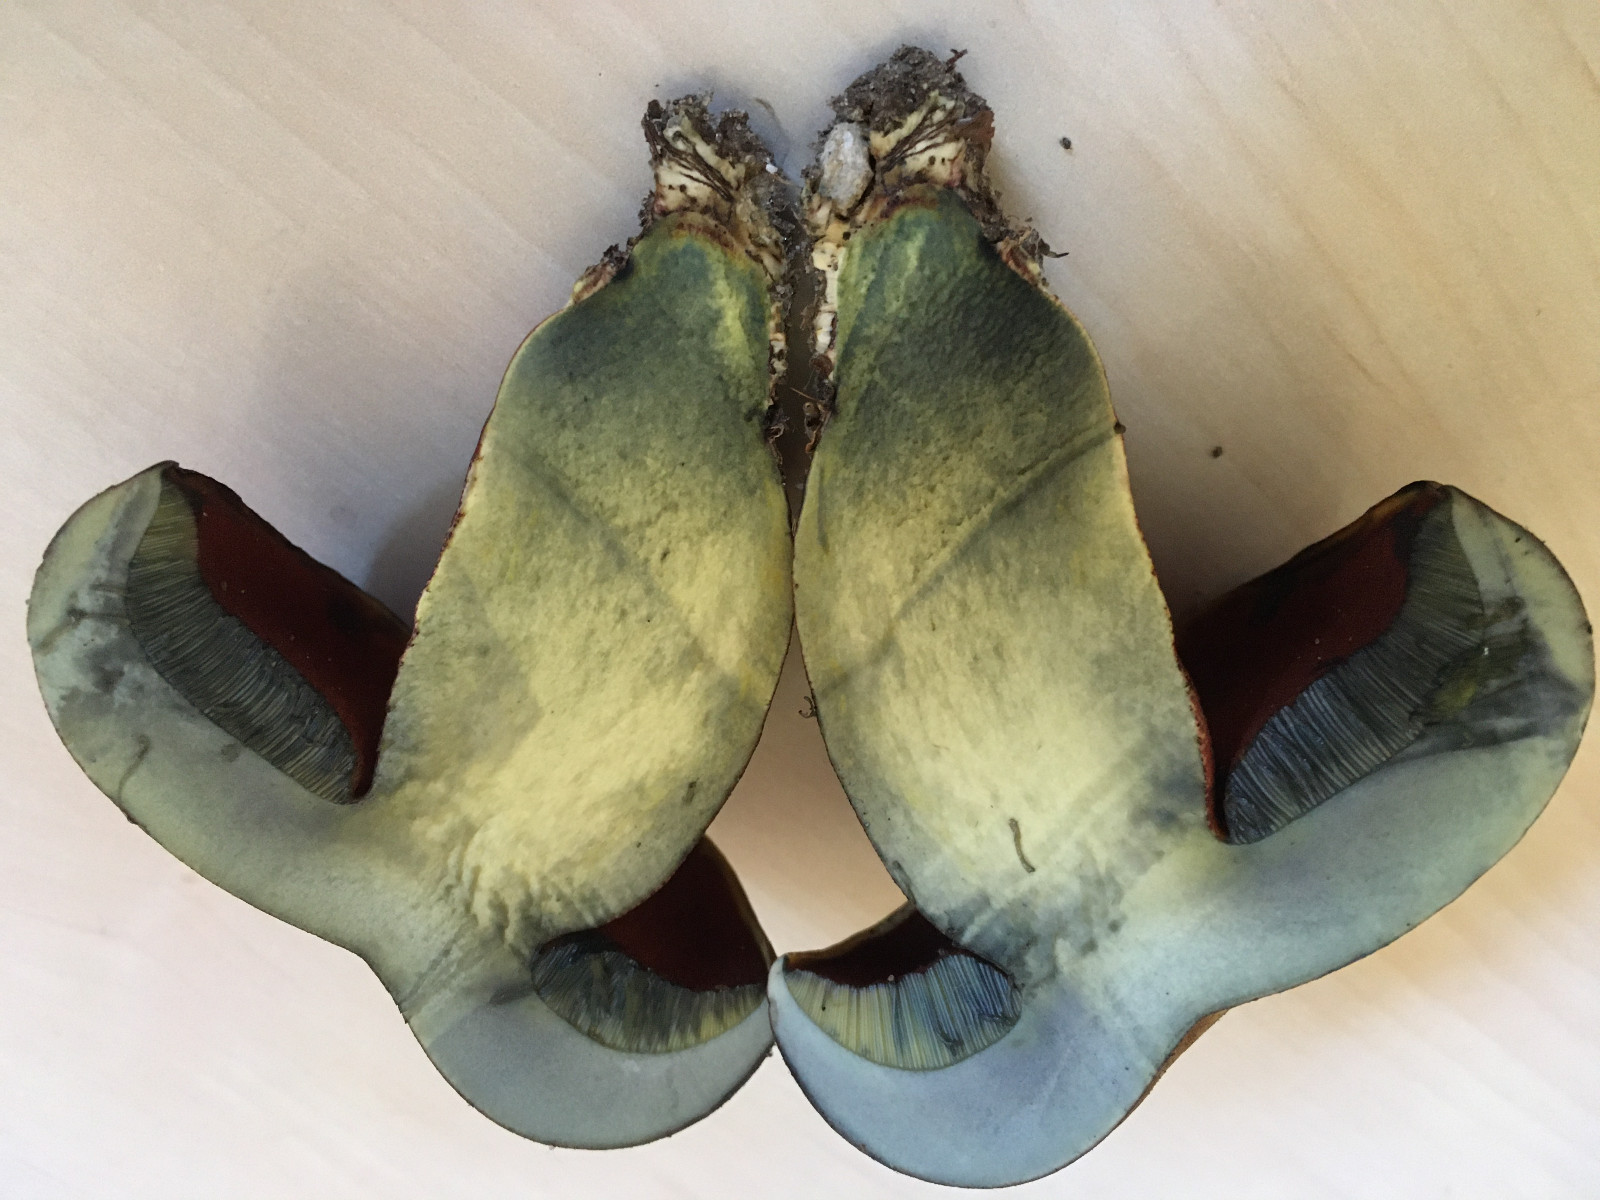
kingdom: Fungi
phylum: Basidiomycota
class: Agaricomycetes
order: Boletales
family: Boletaceae
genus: Neoboletus
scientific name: Neoboletus erythropus
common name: punktstokket indigorørhat
